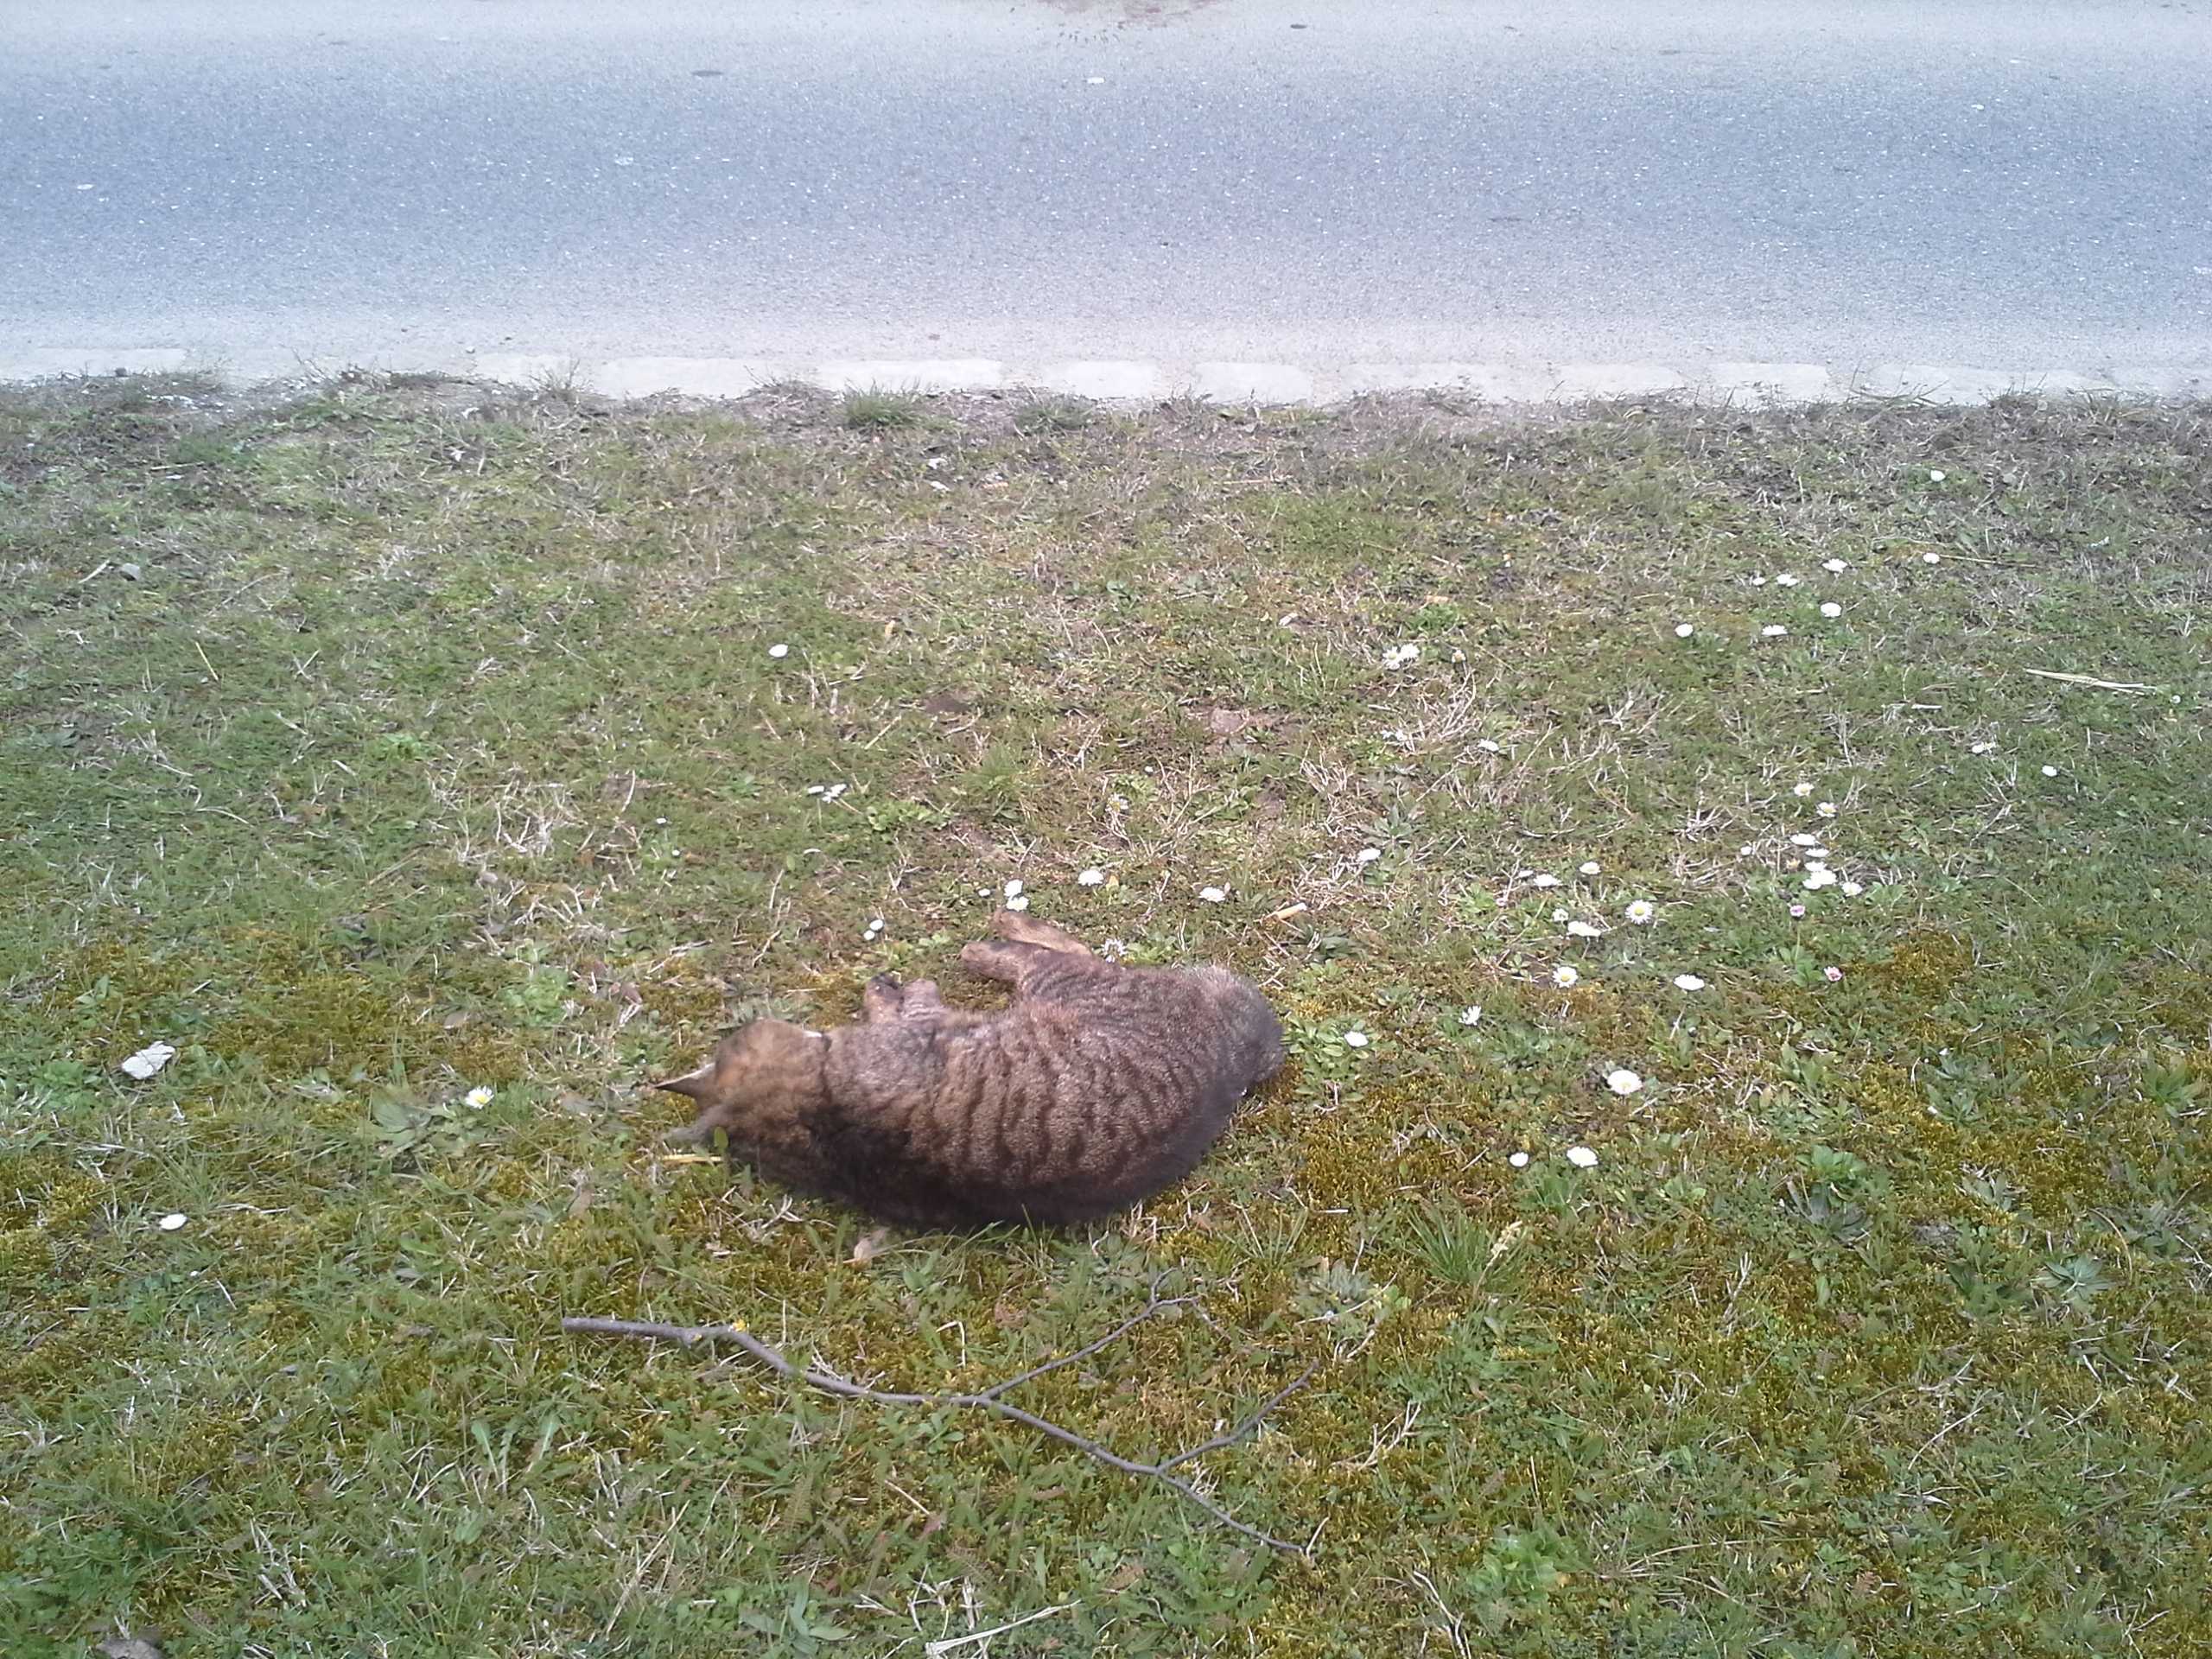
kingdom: Animalia
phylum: Chordata
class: Mammalia
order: Carnivora
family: Felidae
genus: Felis
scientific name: Felis catus
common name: Domestic cat
